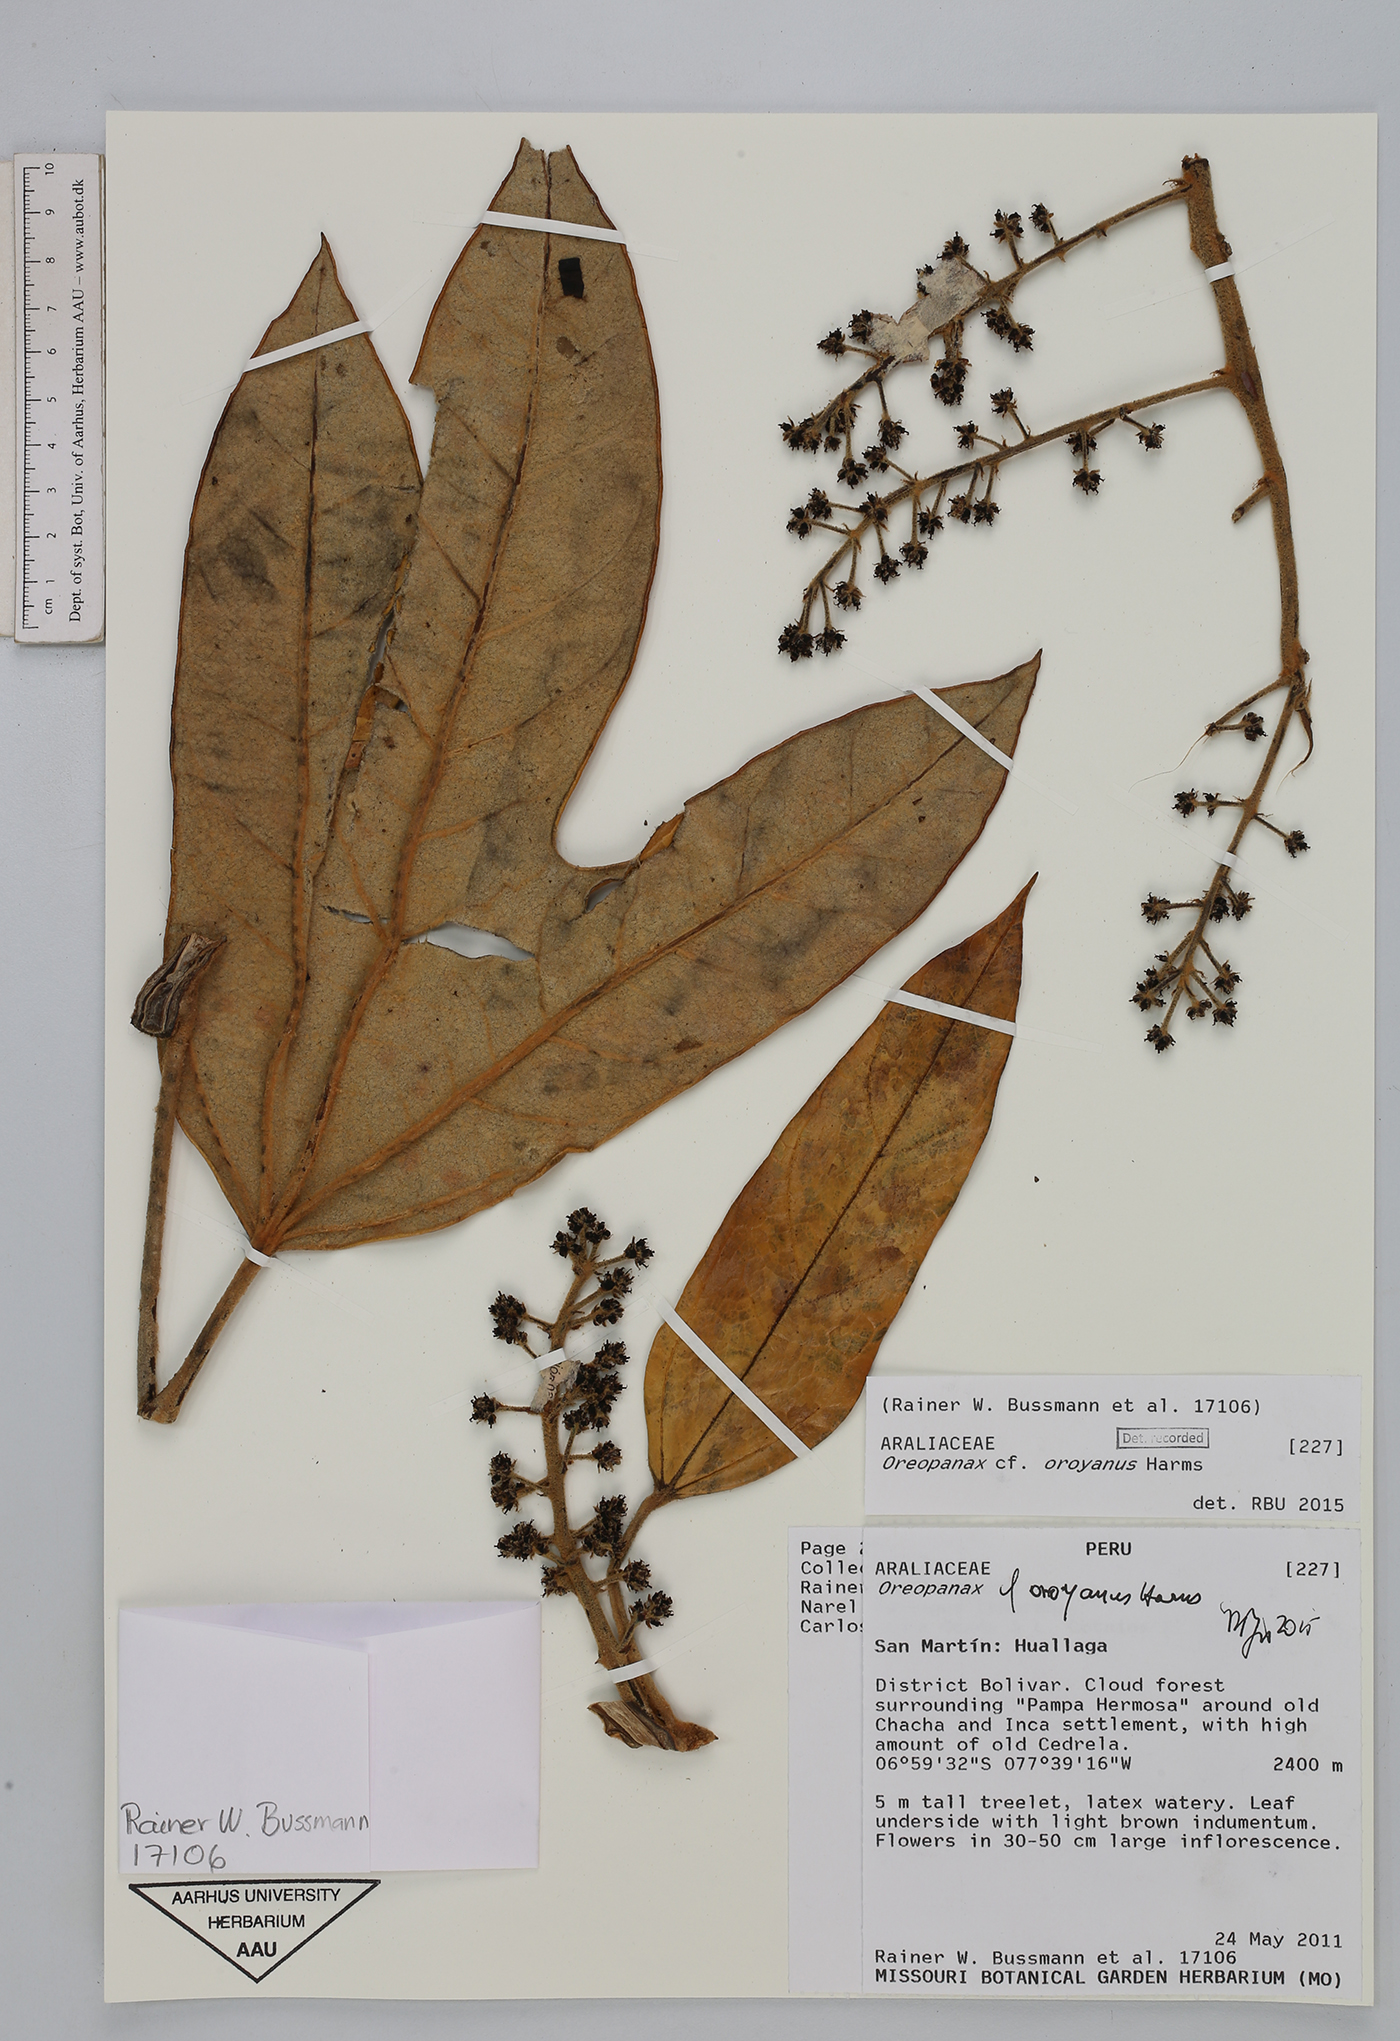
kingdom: Plantae
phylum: Tracheophyta
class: Magnoliopsida
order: Apiales
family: Araliaceae
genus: Oreopanax
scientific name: Oreopanax oroyanus
